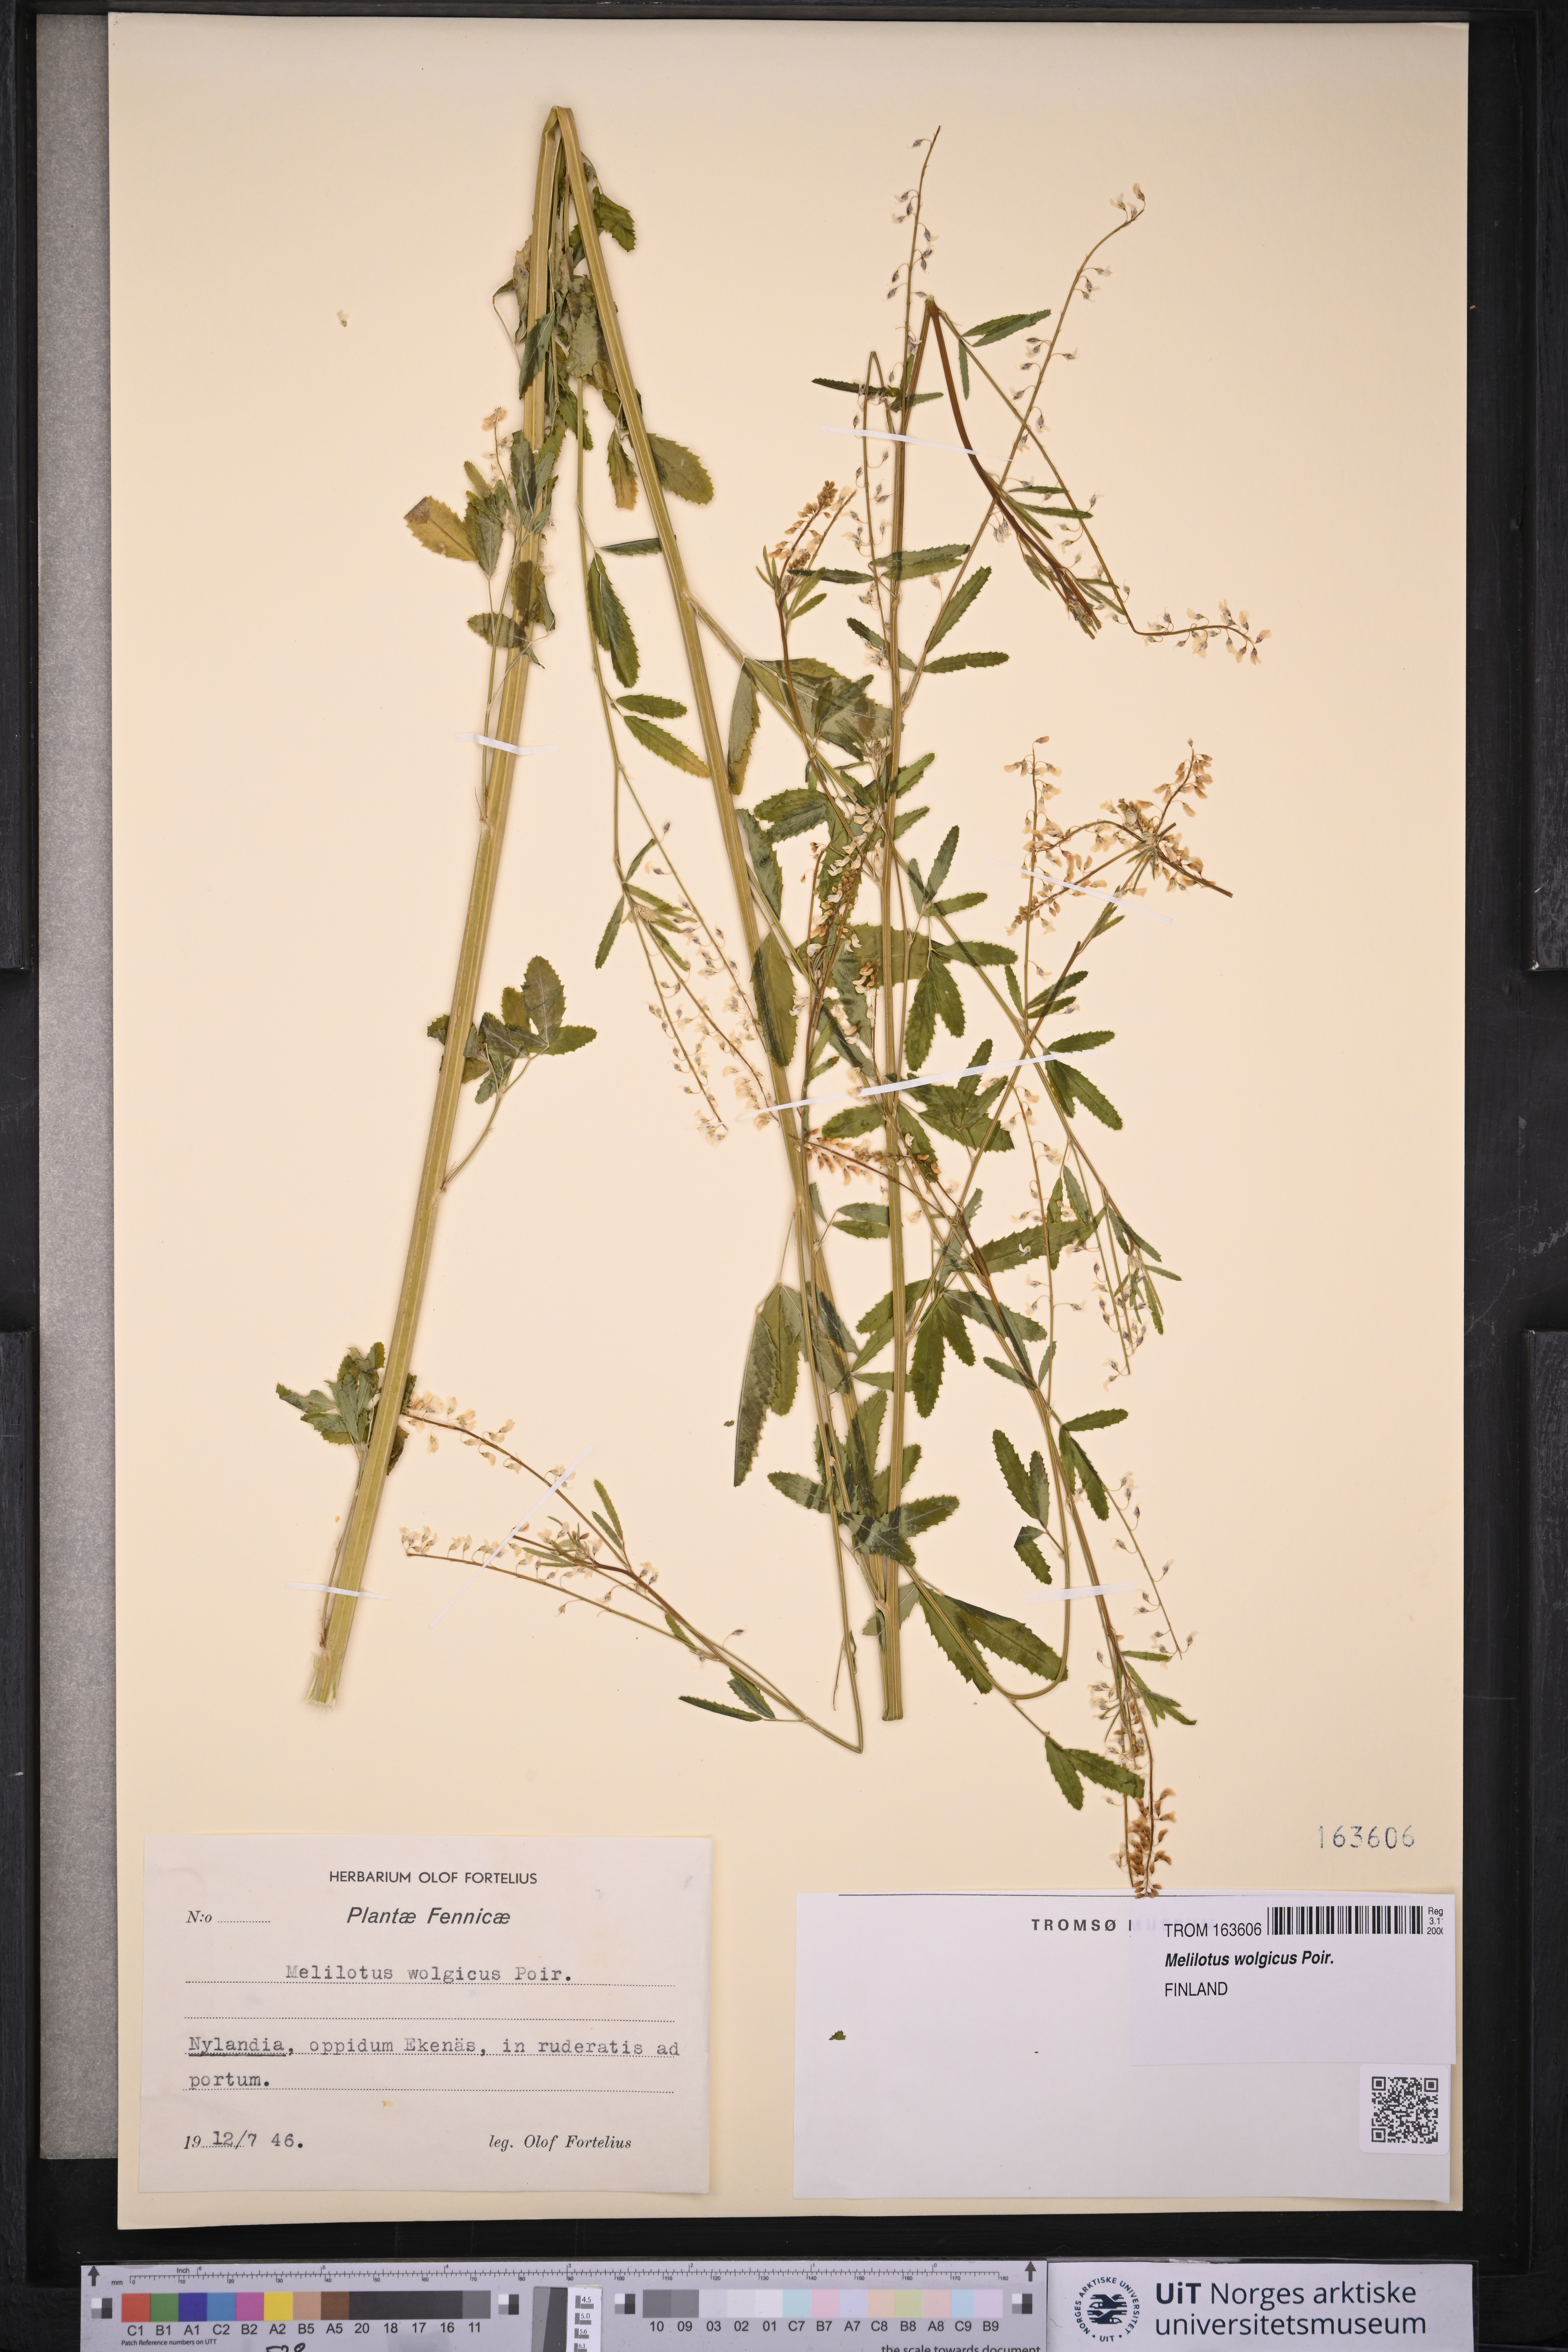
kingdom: Plantae
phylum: Tracheophyta
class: Magnoliopsida
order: Fabales
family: Fabaceae
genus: Melilotus
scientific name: Melilotus wolgicus
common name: Volga sweet-clover
